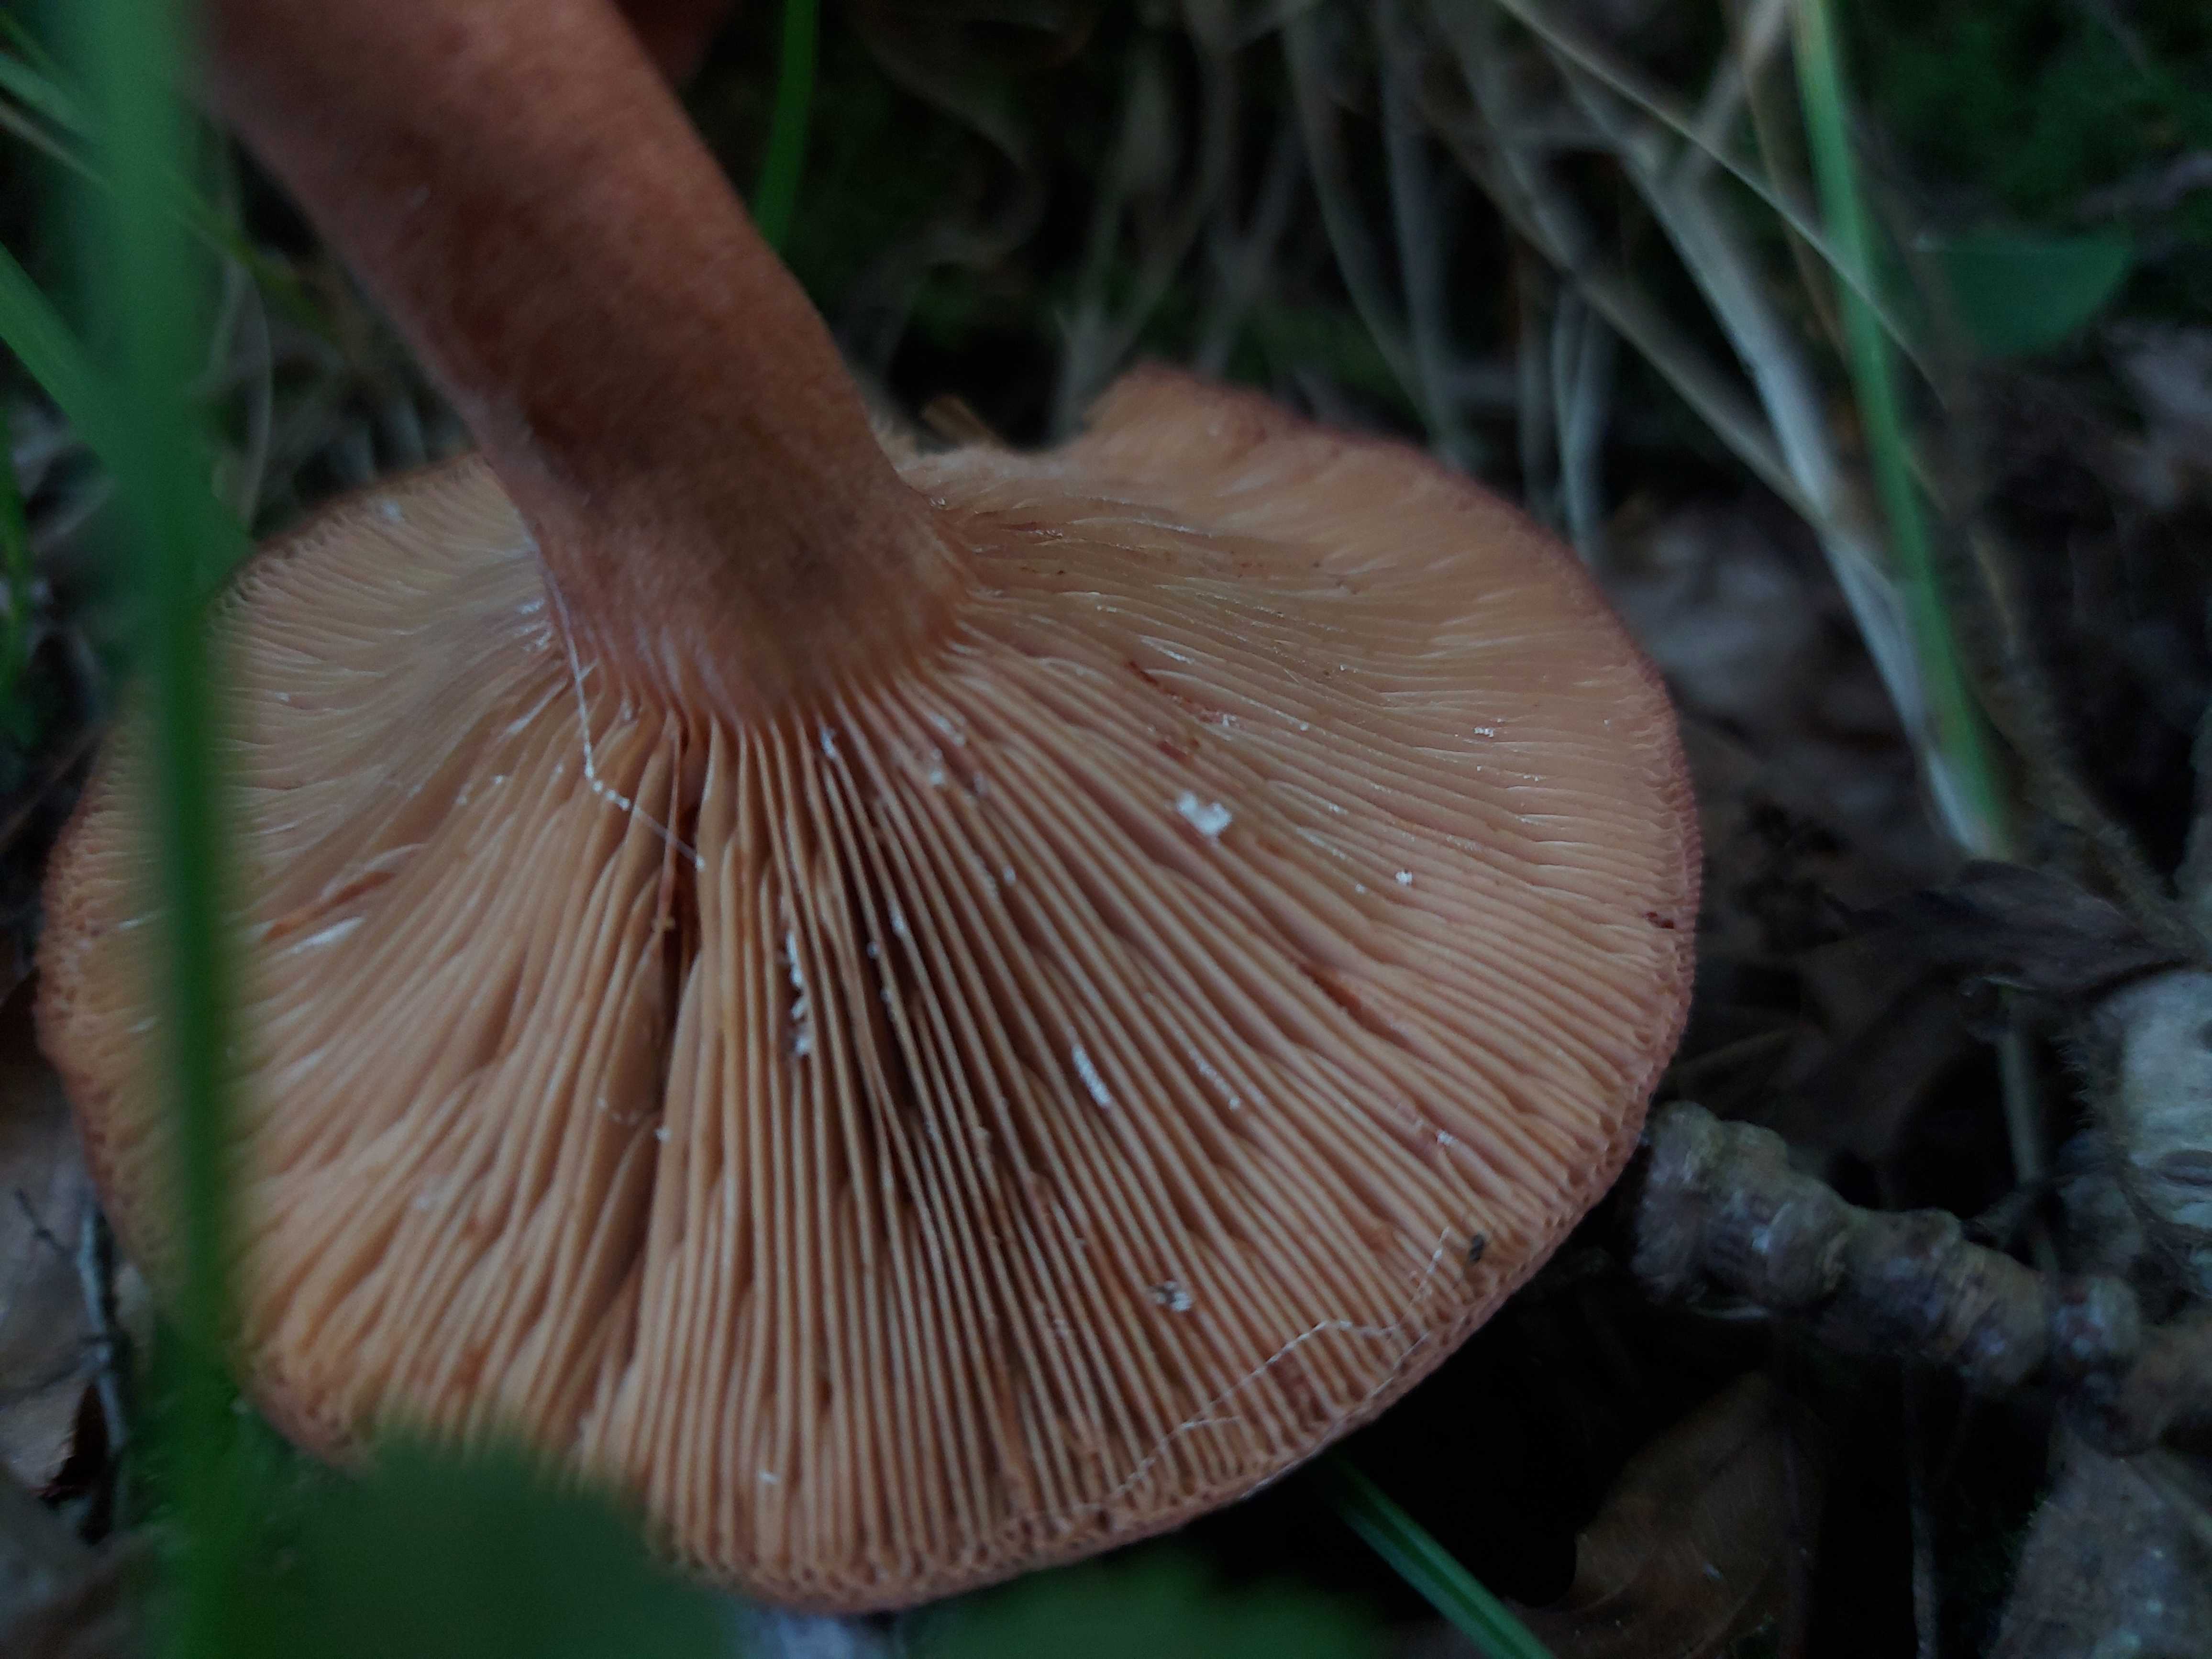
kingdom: Fungi
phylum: Basidiomycota
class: Agaricomycetes
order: Russulales
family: Russulaceae
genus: Lactarius
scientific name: Lactarius quietus
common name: ege-mælkehat
